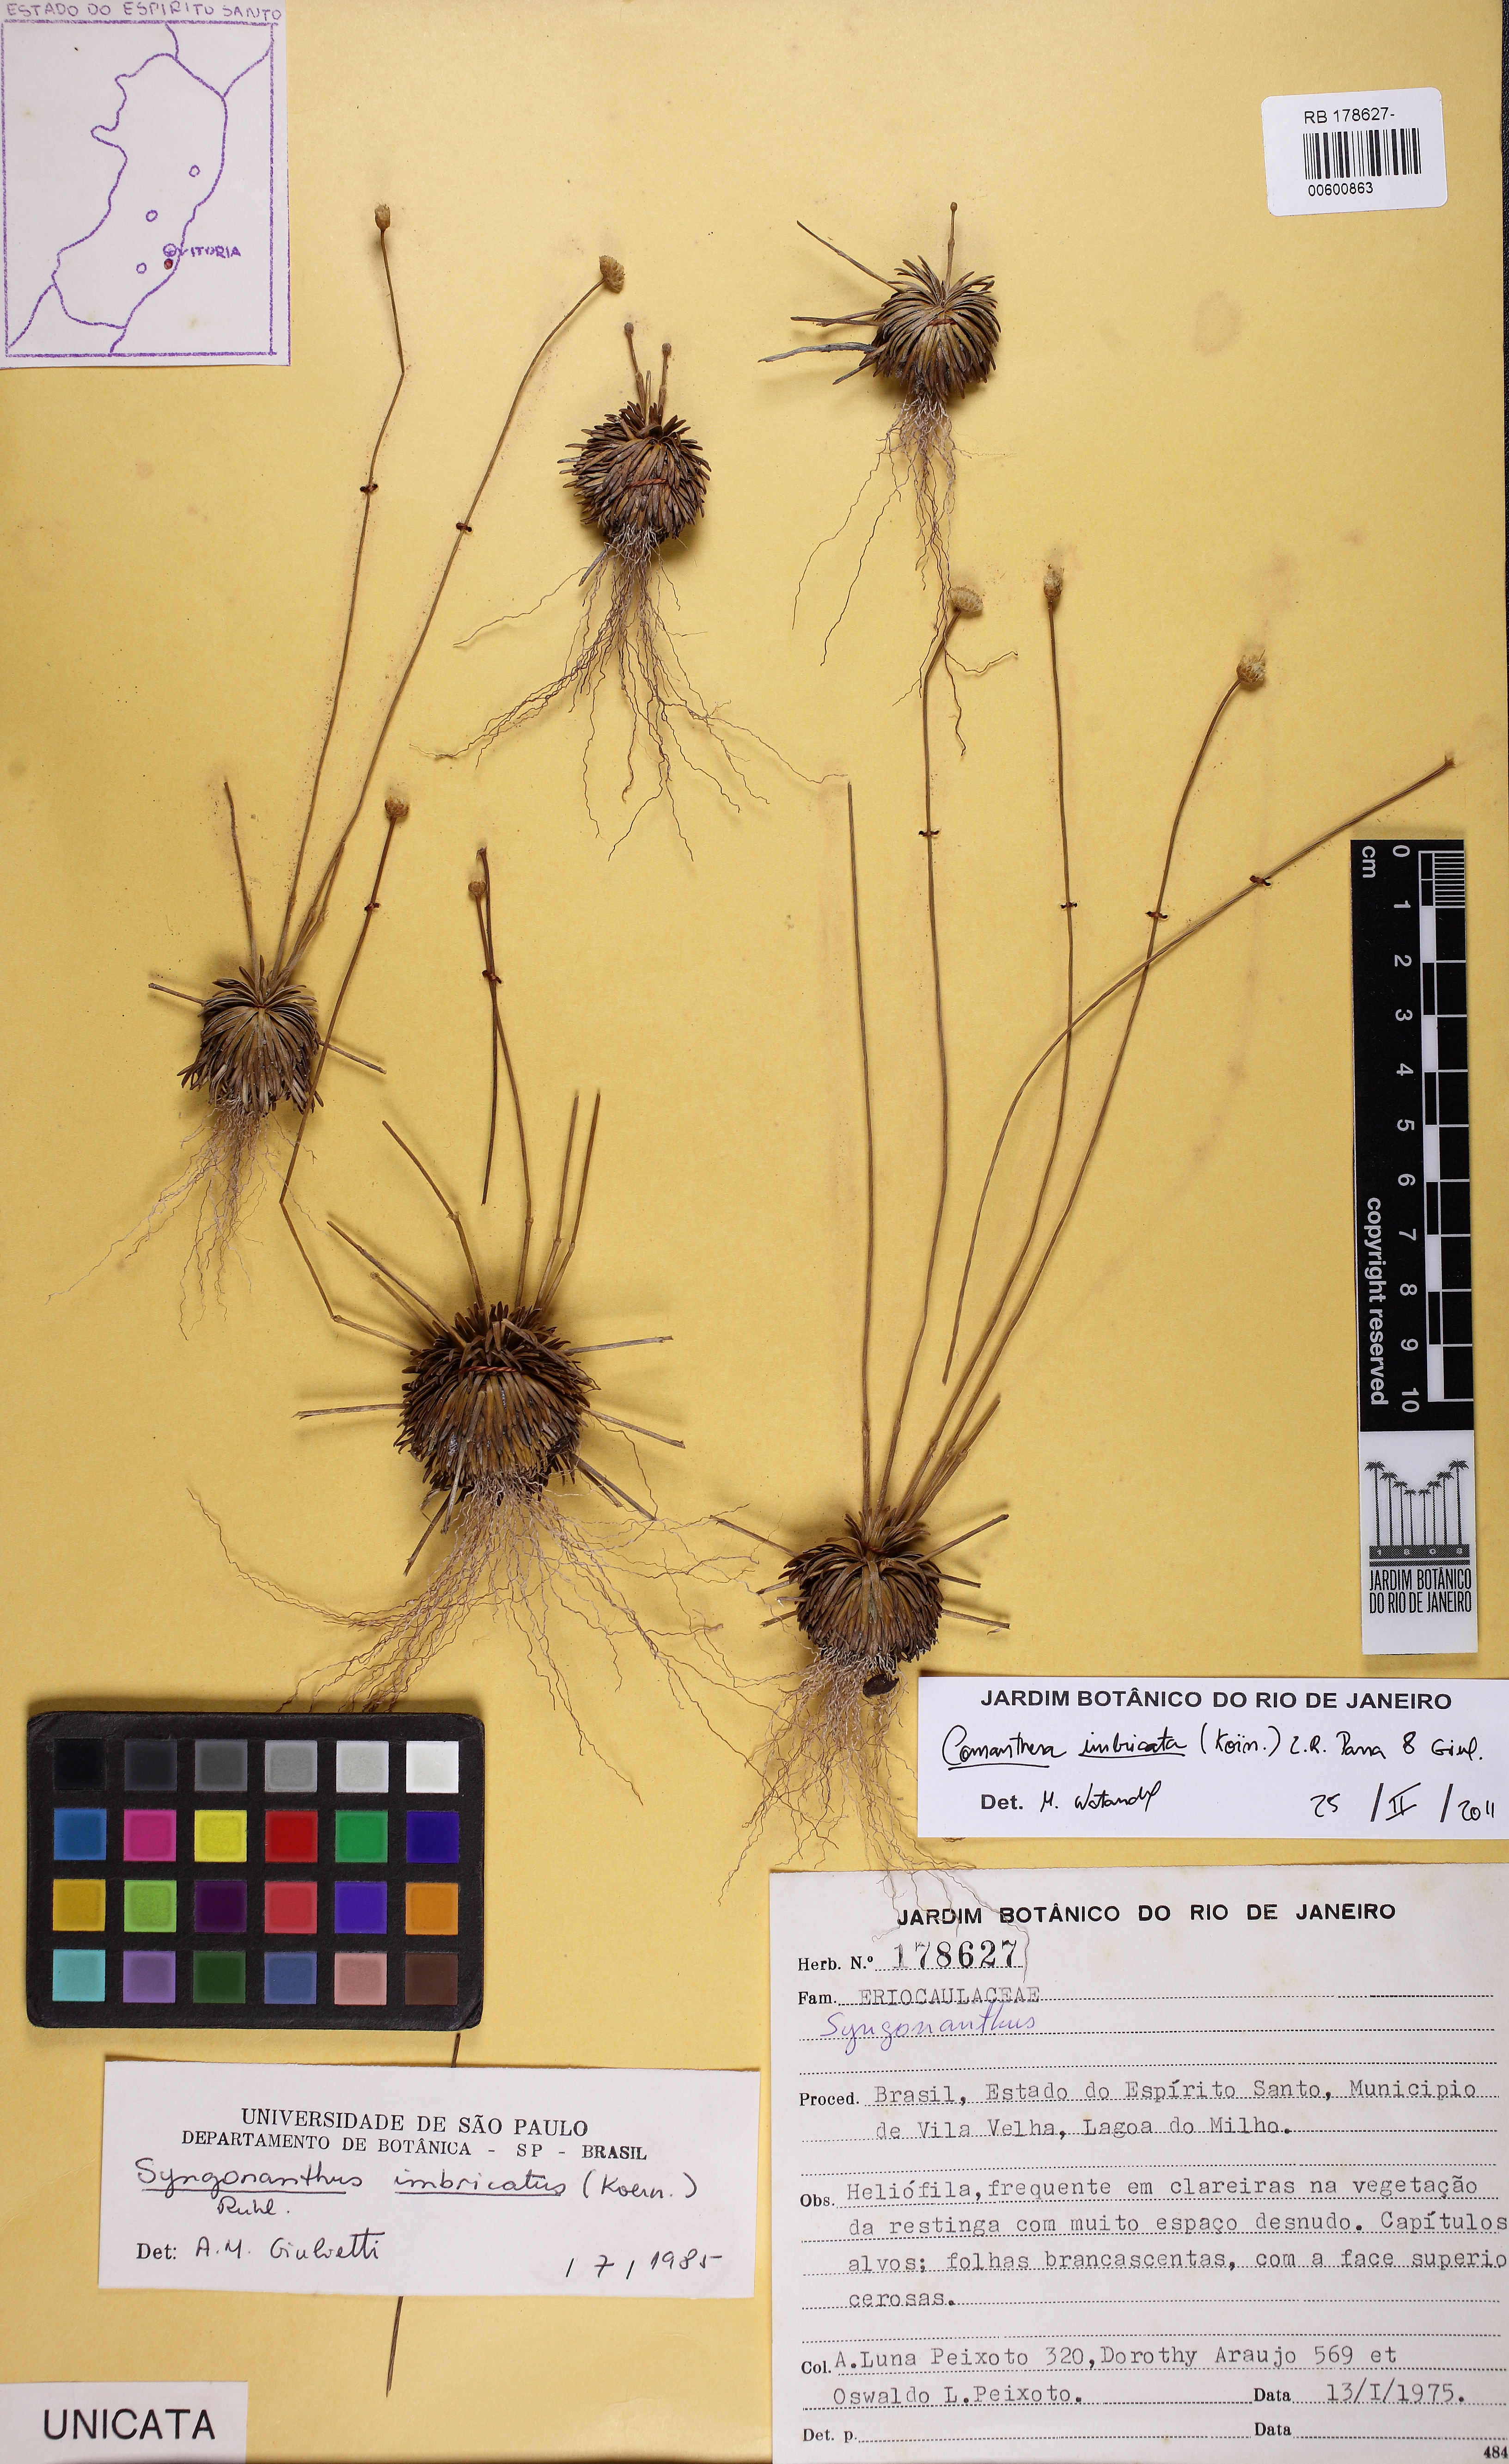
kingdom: Plantae
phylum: Tracheophyta
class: Liliopsida
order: Poales
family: Eriocaulaceae
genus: Comanthera
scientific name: Comanthera caespitosa
